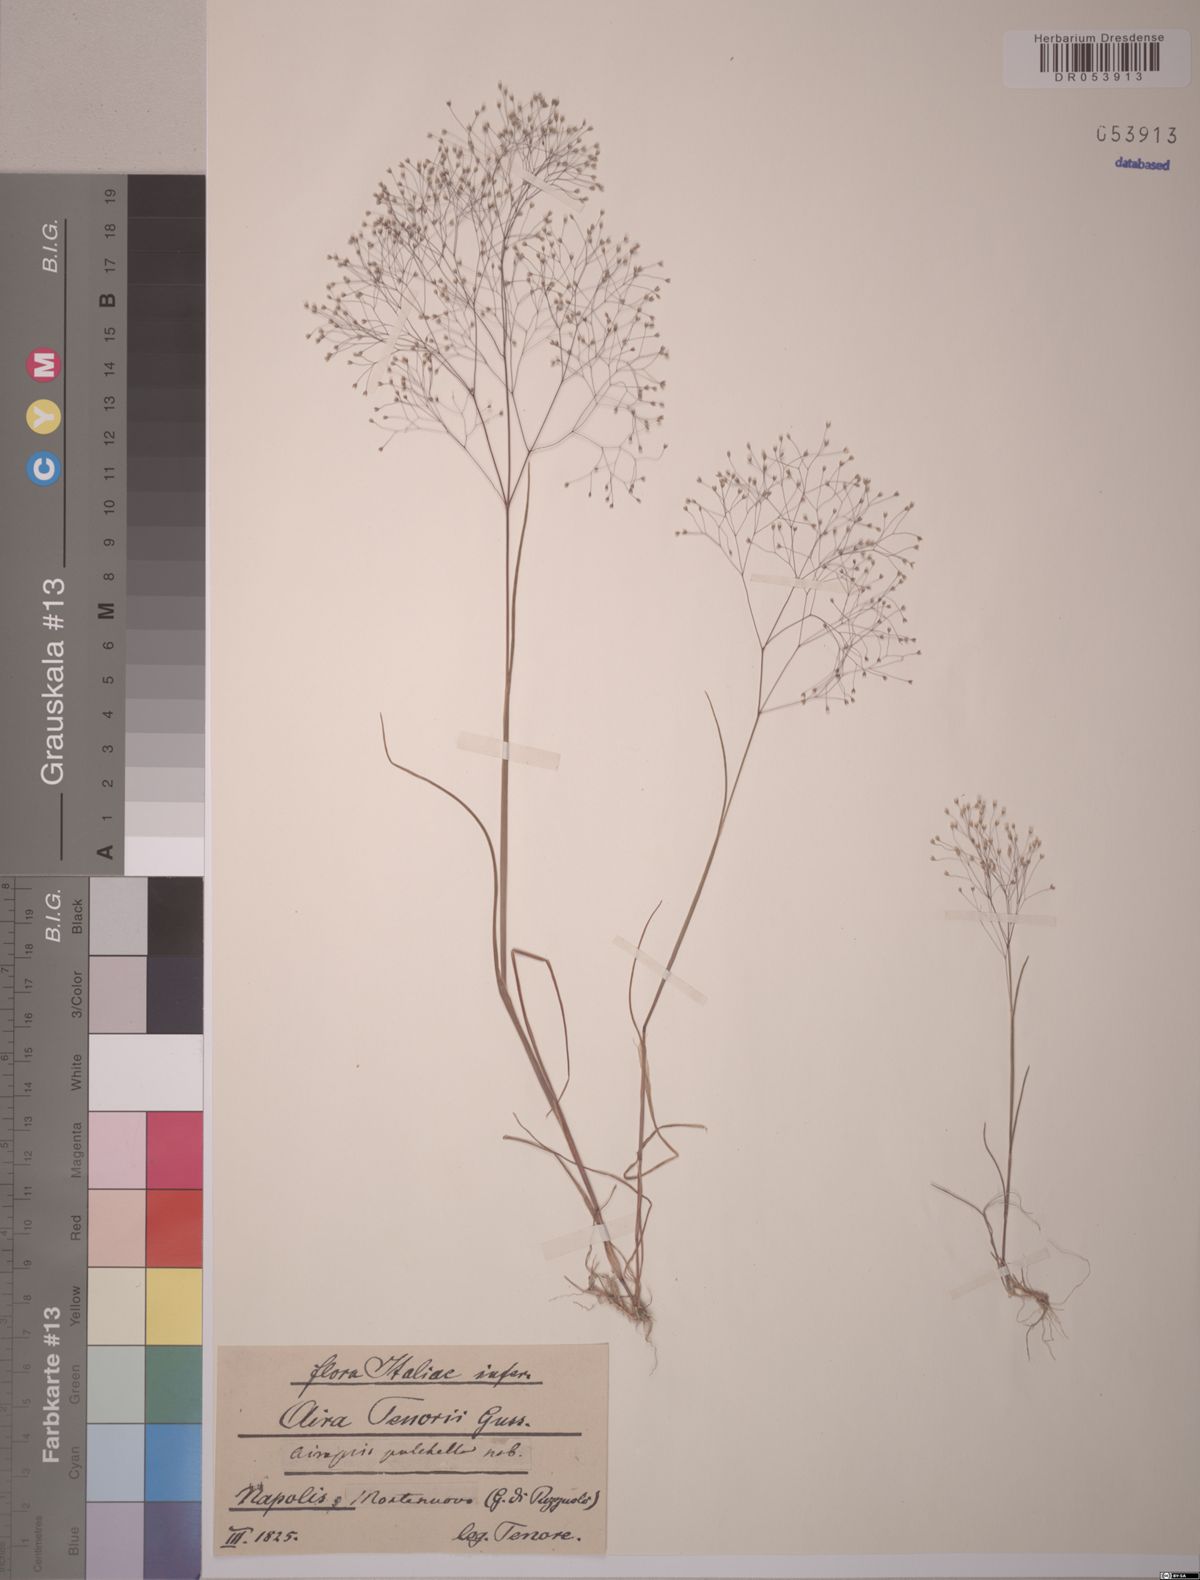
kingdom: Plantae
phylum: Tracheophyta
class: Liliopsida
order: Poales
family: Poaceae
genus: Aira
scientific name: Aira tenorei
